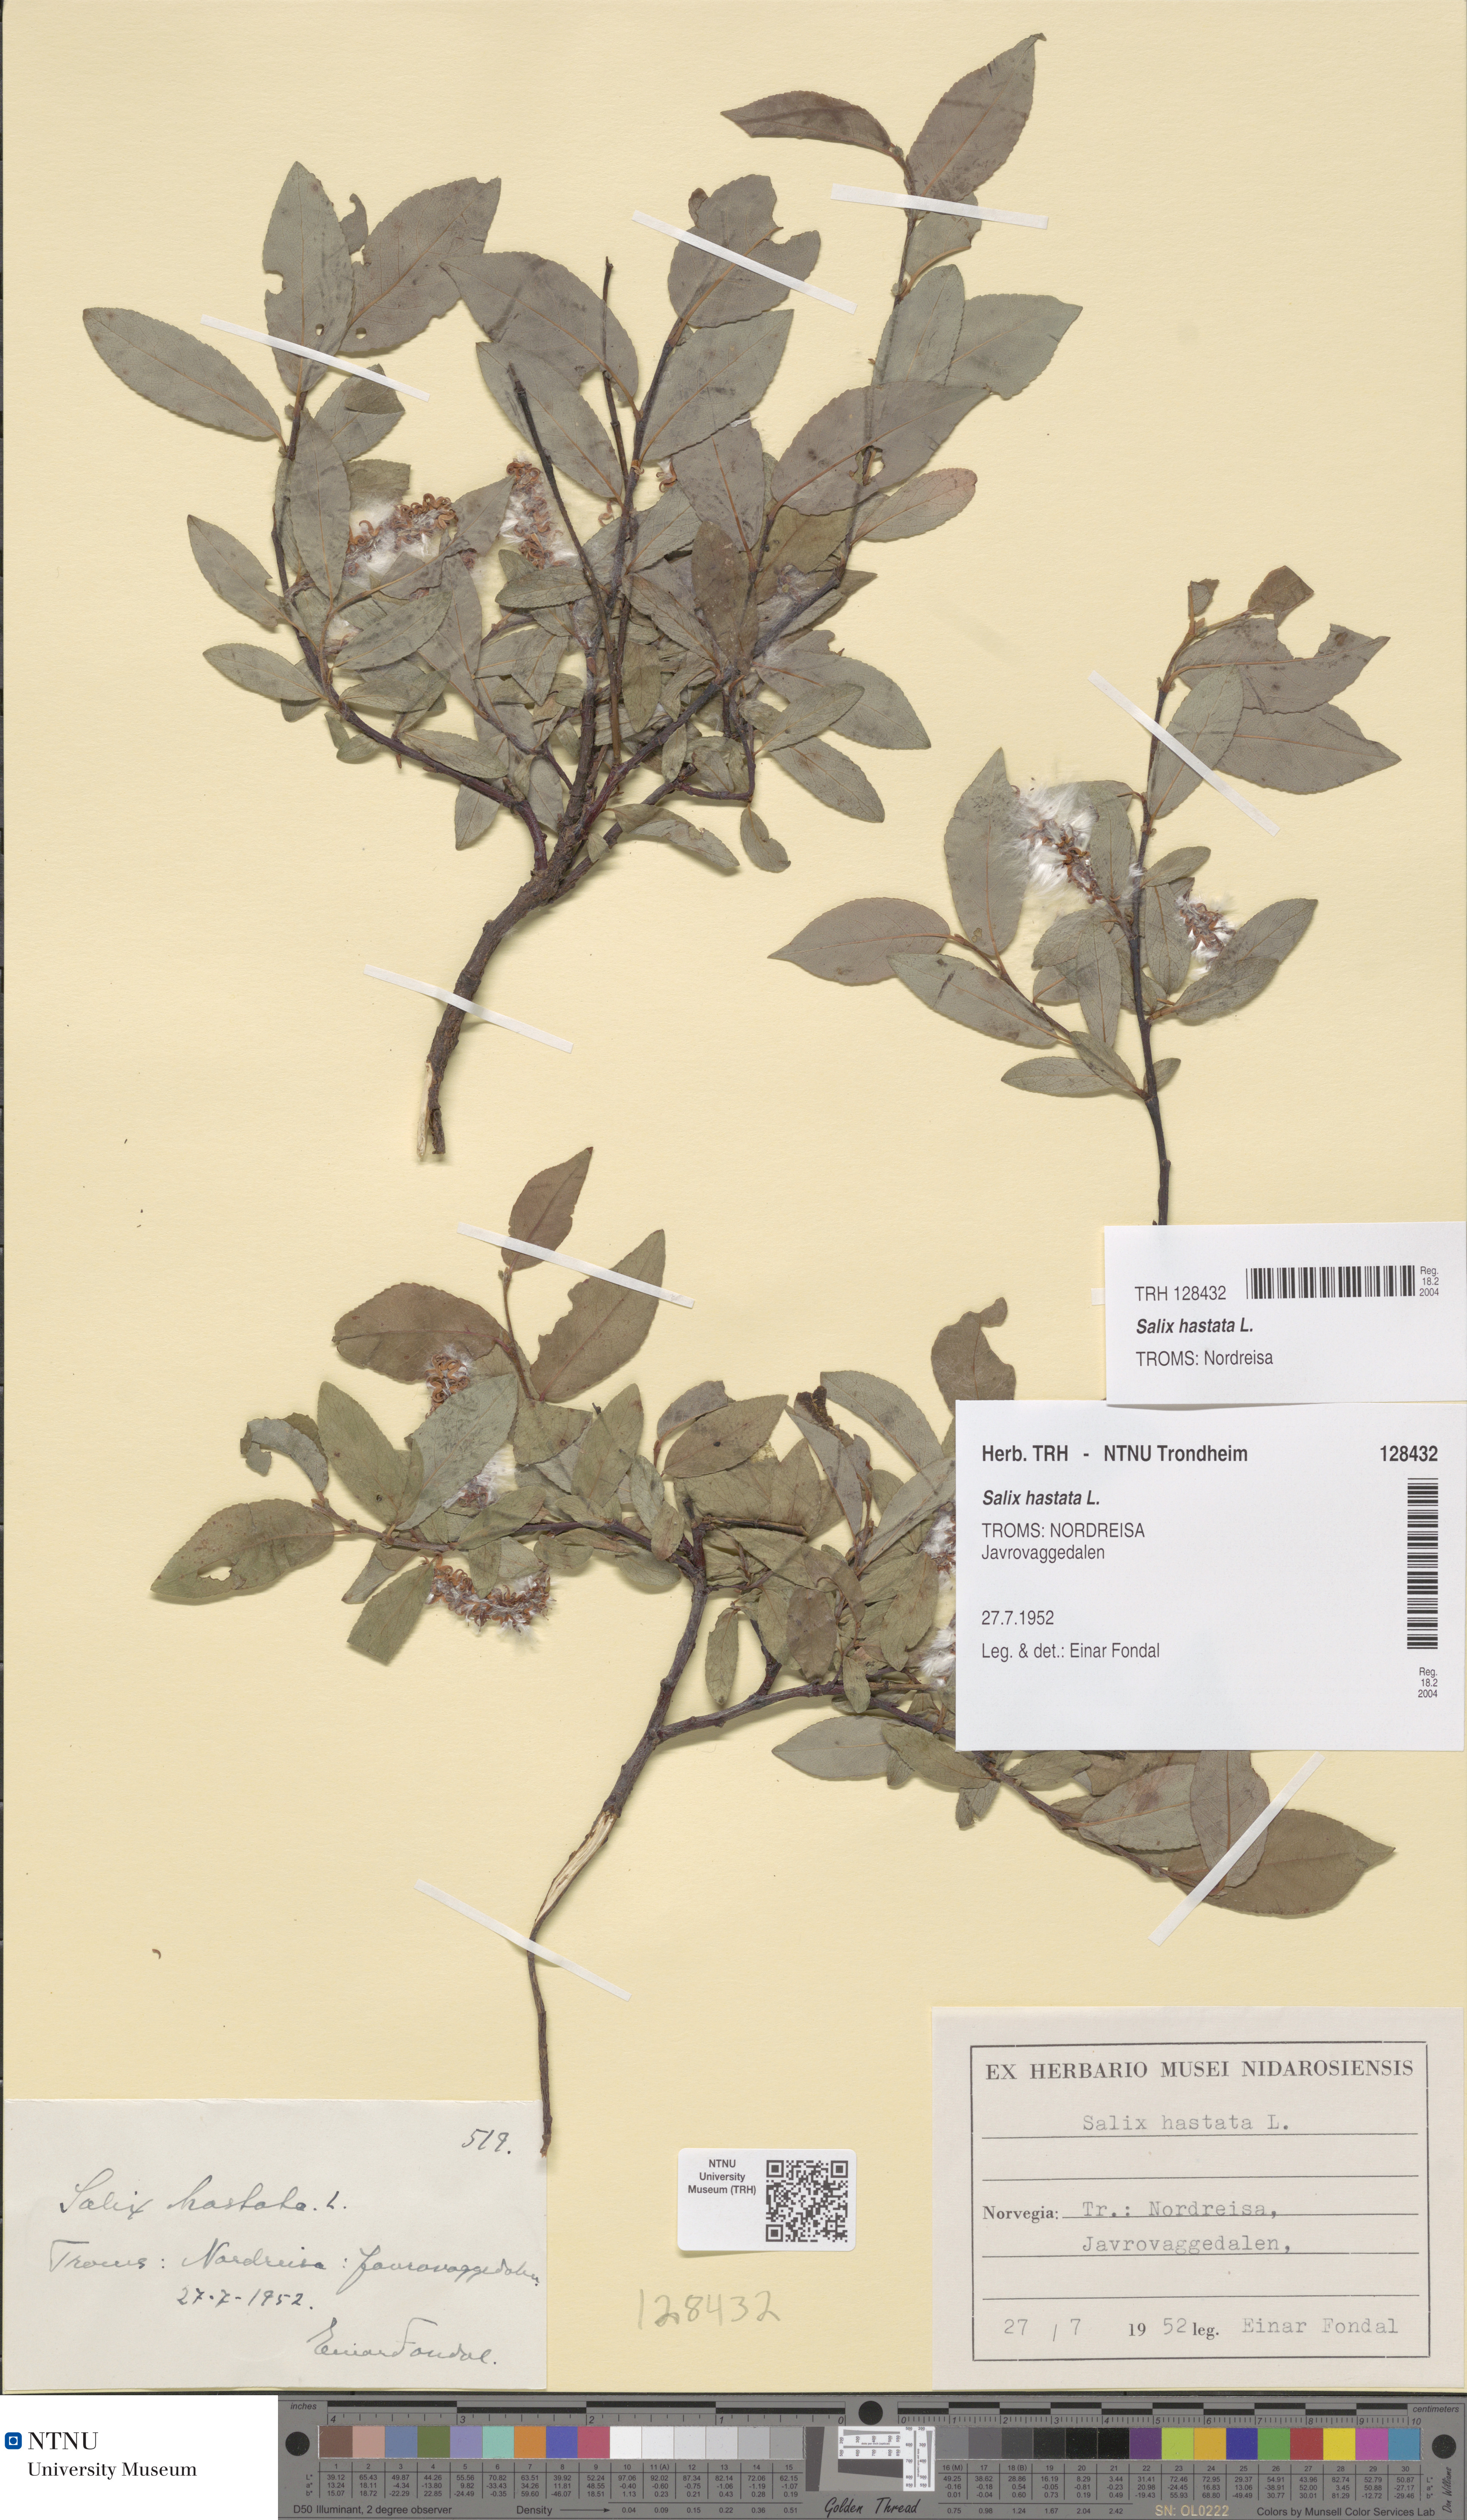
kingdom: Plantae
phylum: Tracheophyta
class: Magnoliopsida
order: Malpighiales
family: Salicaceae
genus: Salix
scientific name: Salix hastata
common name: Halberd willow
